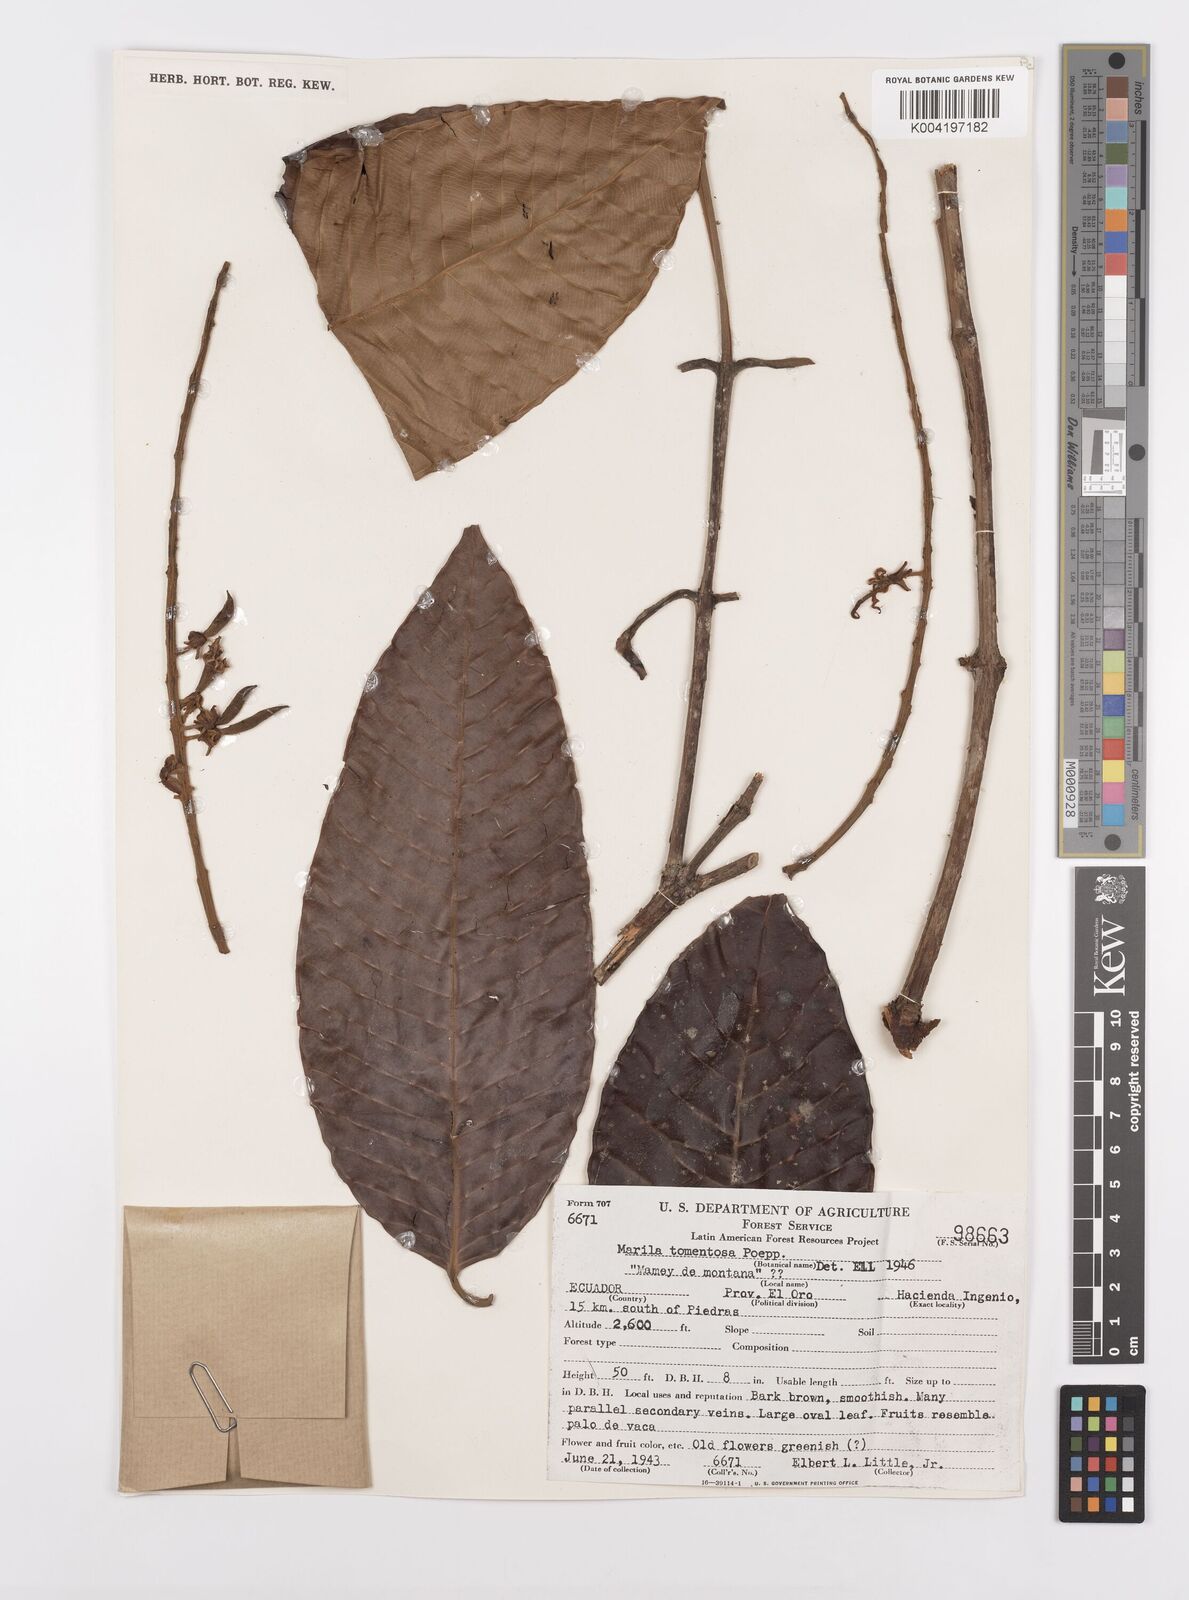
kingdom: Plantae
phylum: Tracheophyta
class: Magnoliopsida
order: Malpighiales
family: Calophyllaceae
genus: Marila
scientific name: Marila tomentosa
